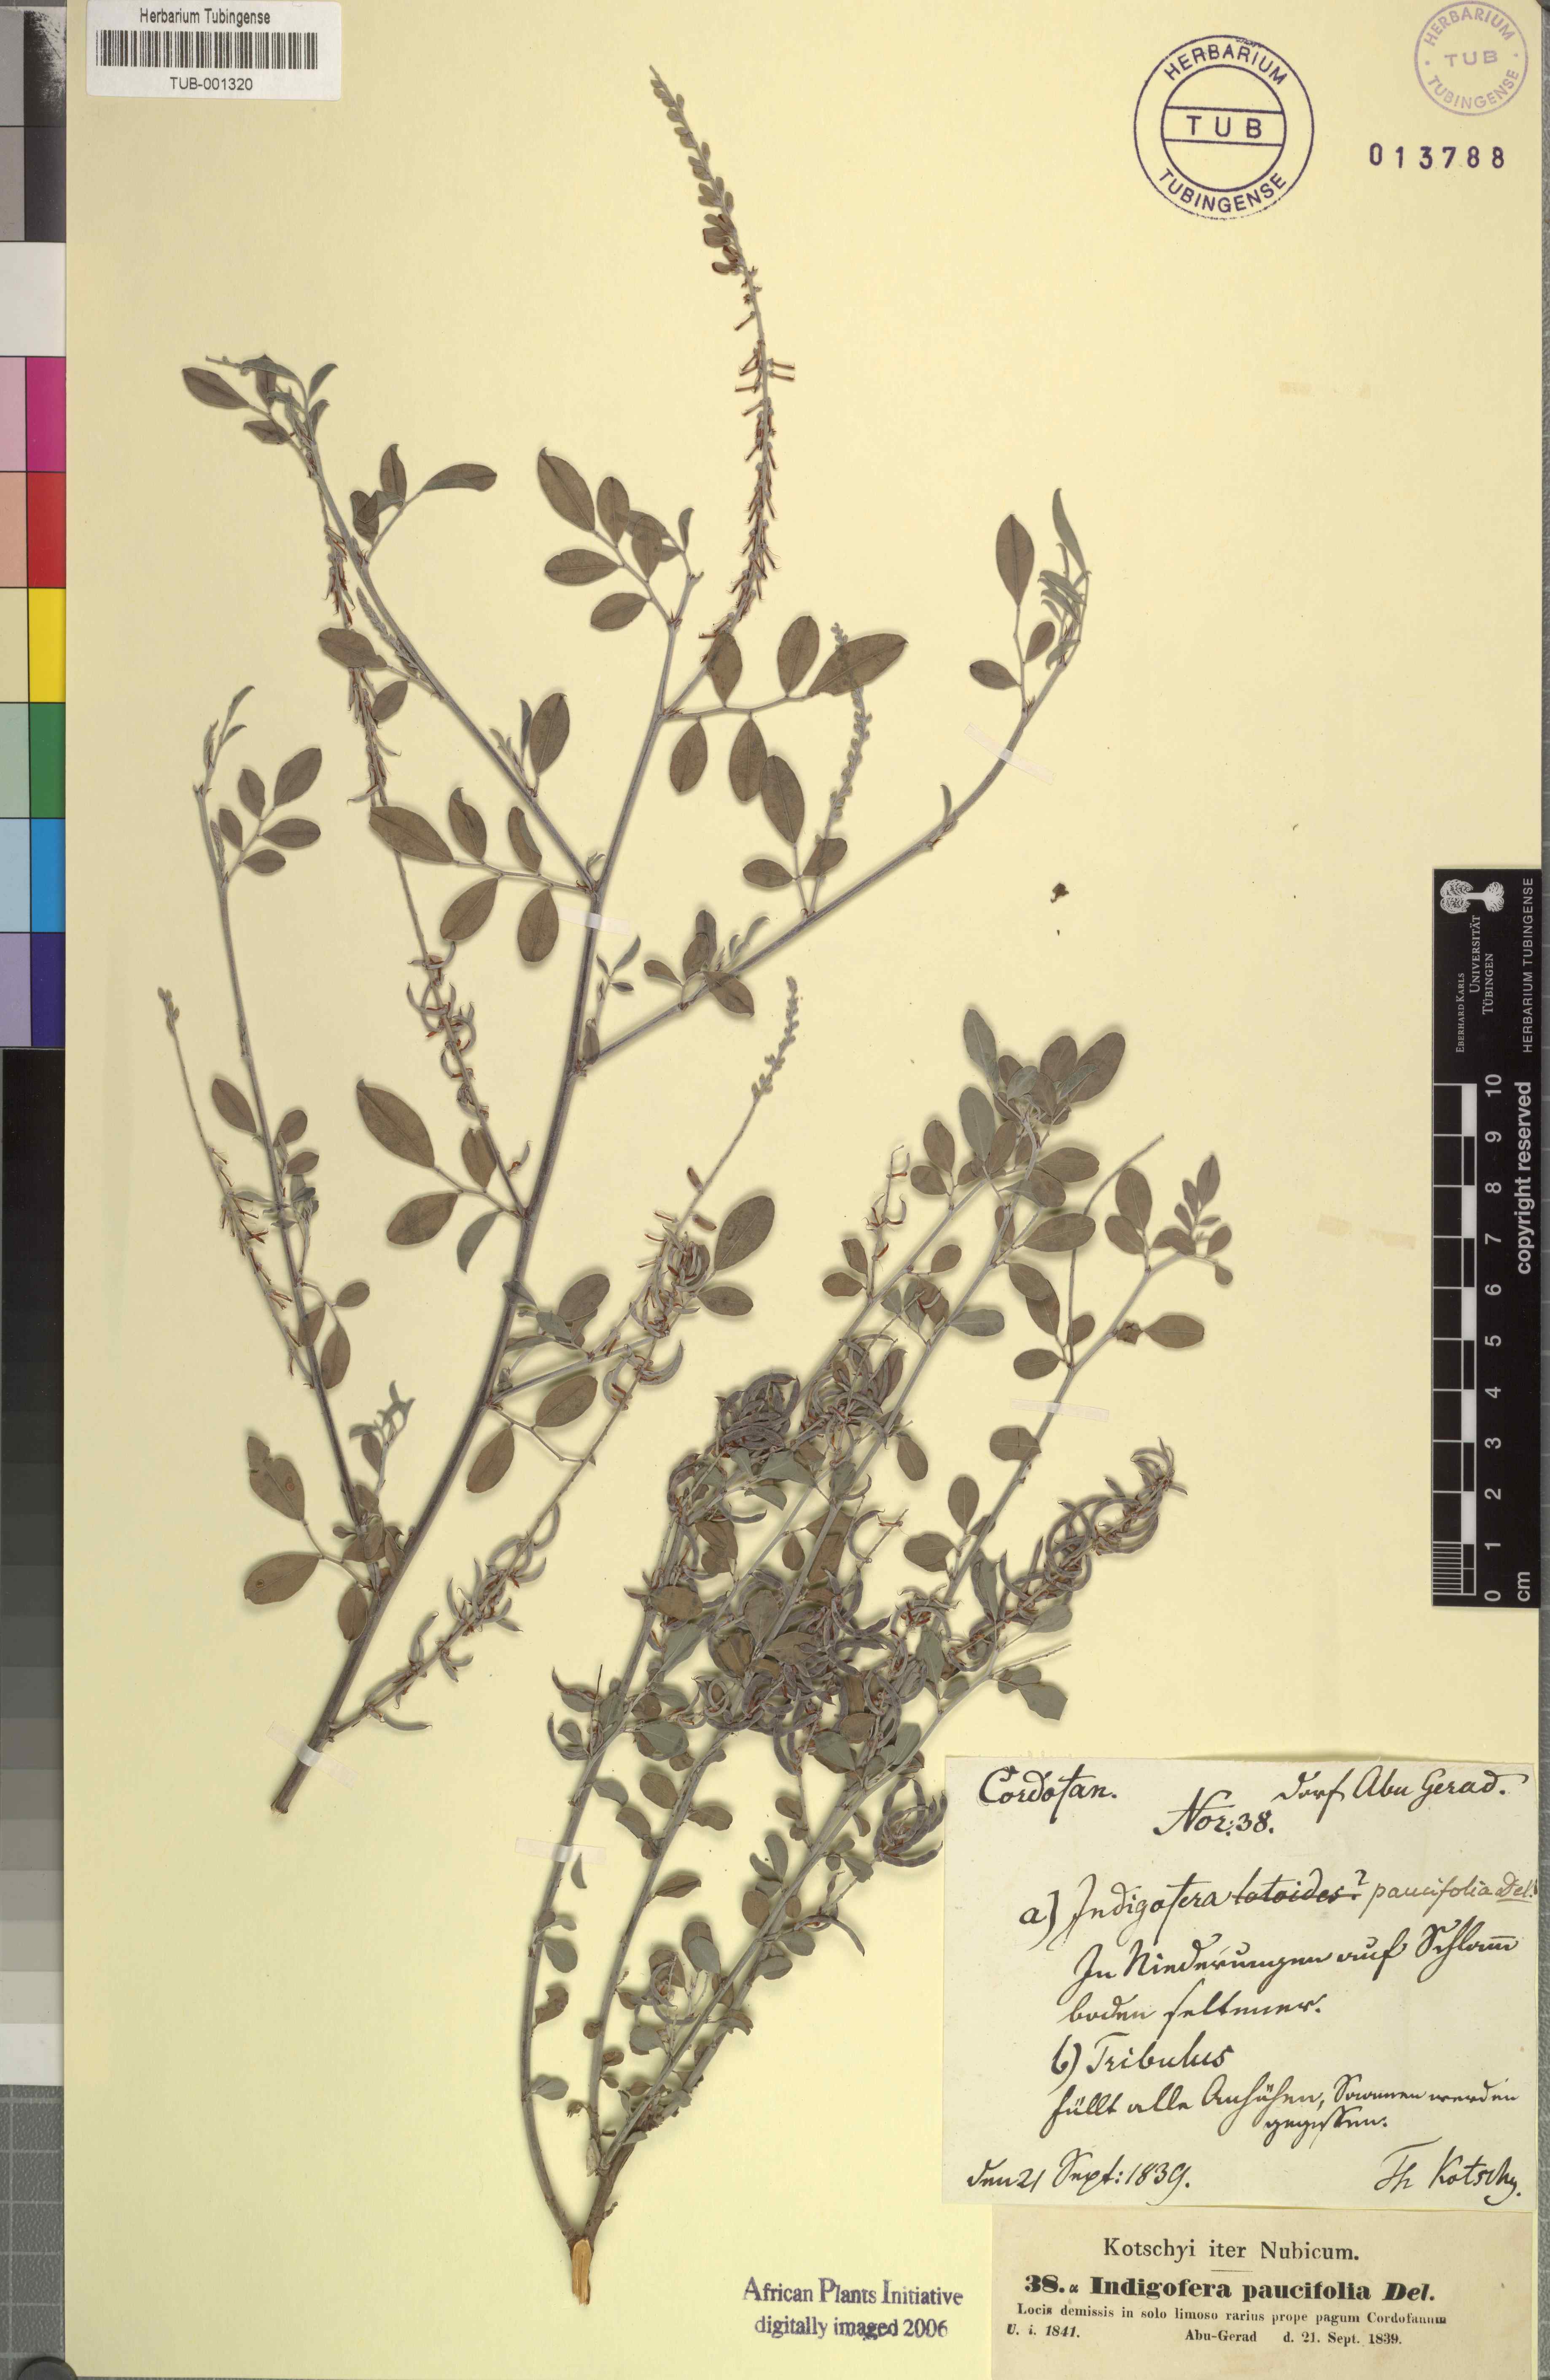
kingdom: Plantae
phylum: Tracheophyta
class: Magnoliopsida
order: Fabales
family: Fabaceae
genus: Indigofera
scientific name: Indigofera oblongifolia
